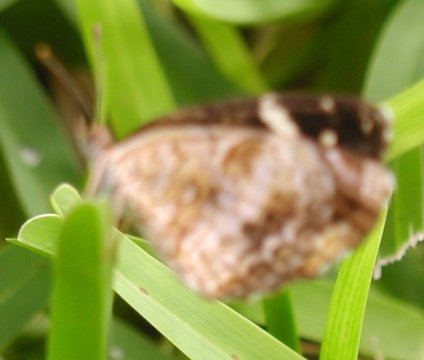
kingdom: Animalia
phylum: Arthropoda
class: Insecta
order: Lepidoptera
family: Nymphalidae
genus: Anthanassa
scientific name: Anthanassa argentea
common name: Chestnut Crescent
